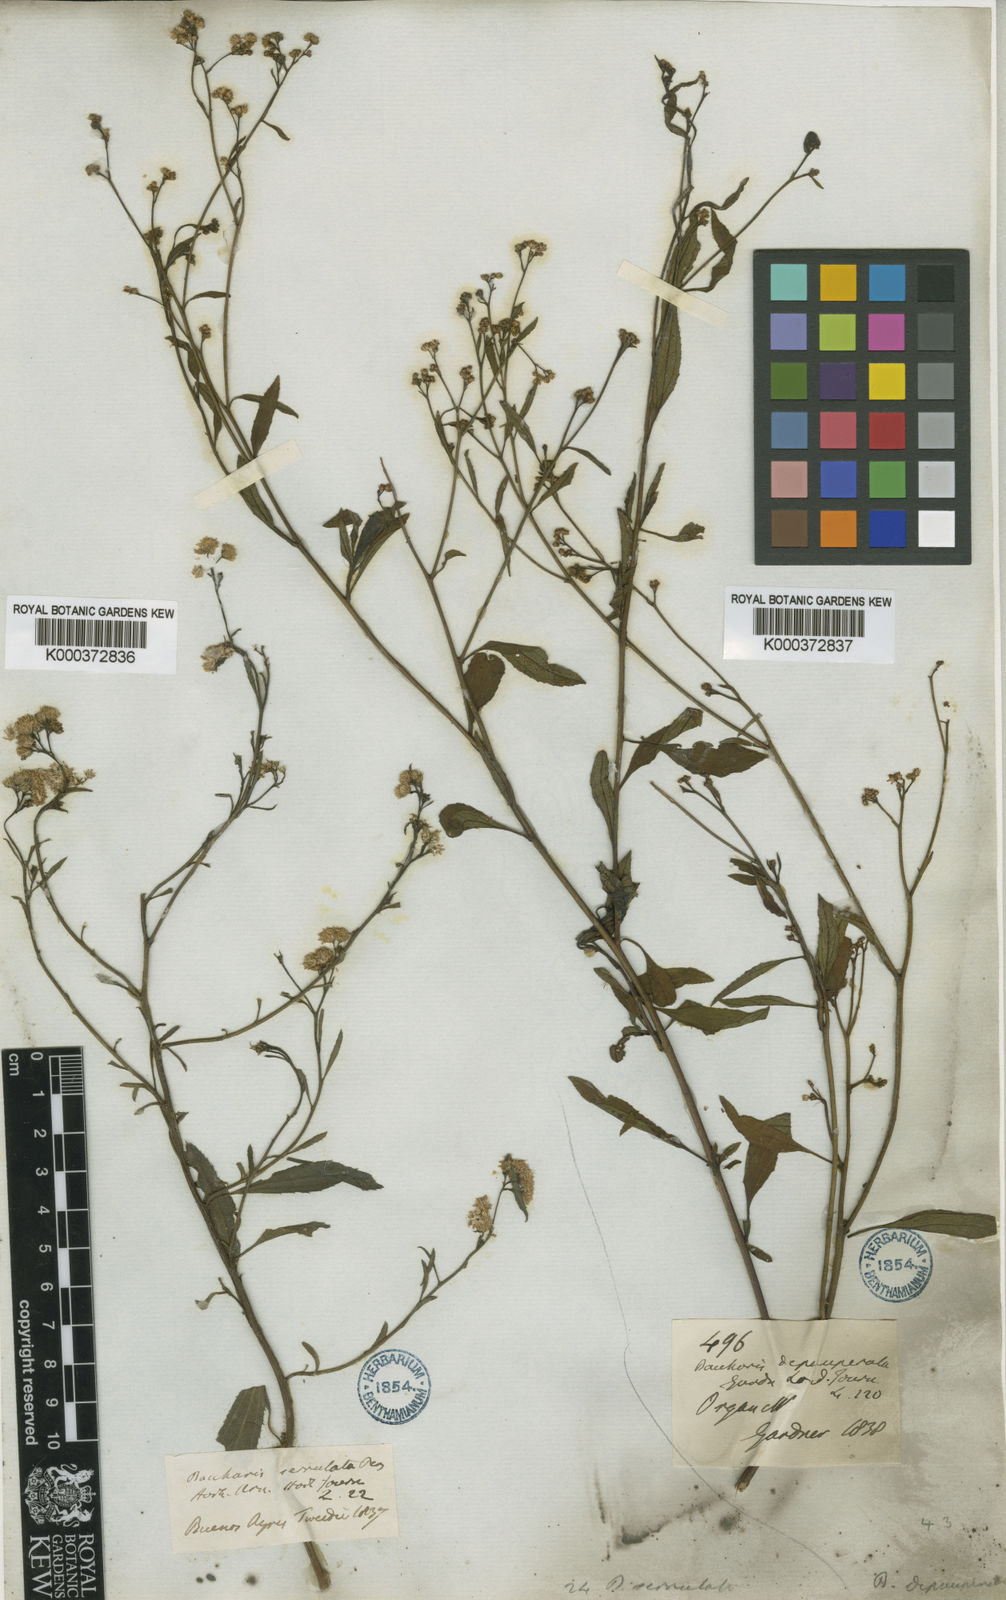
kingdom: Plantae
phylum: Tracheophyta
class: Magnoliopsida
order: Asterales
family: Asteraceae
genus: Baccharis
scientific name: Baccharis serrulata
